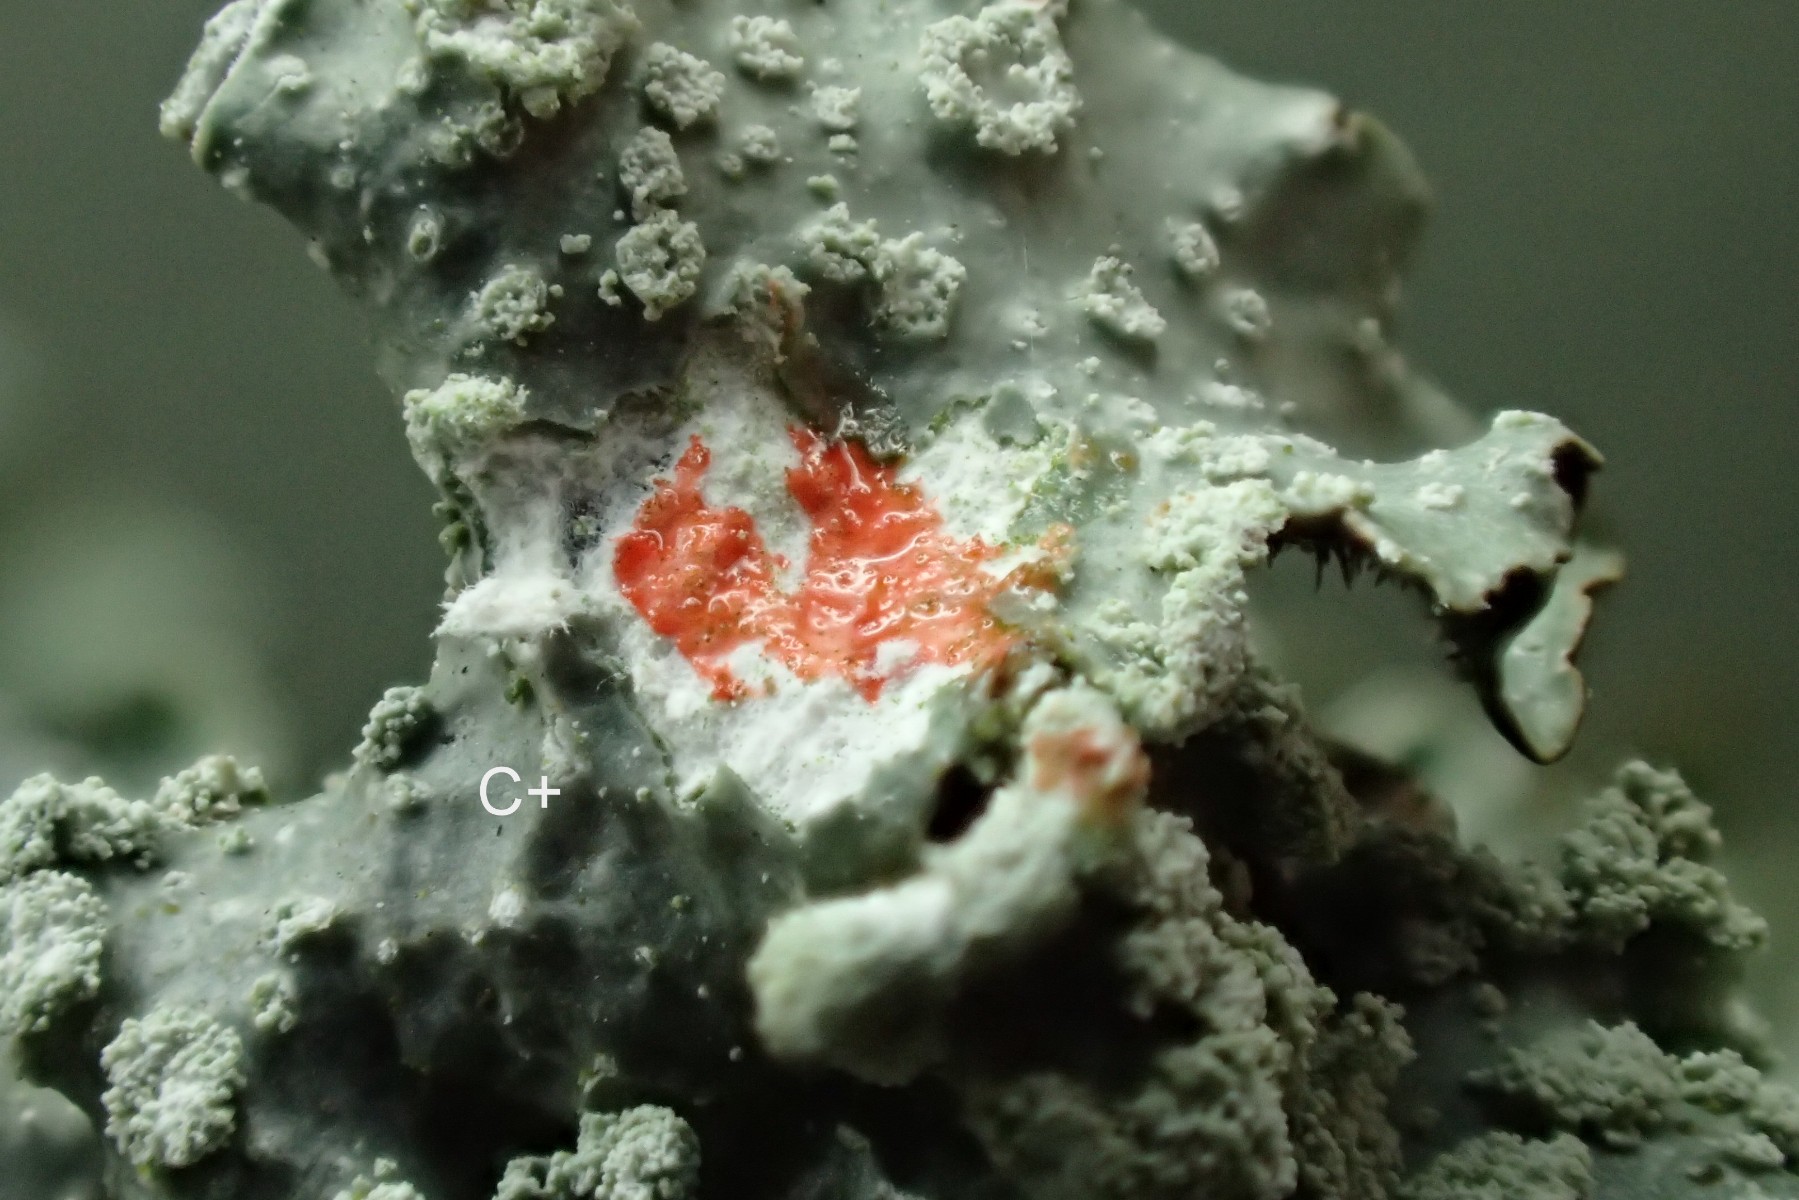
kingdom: Fungi
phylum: Ascomycota
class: Lecanoromycetes
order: Lecanorales
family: Parmeliaceae
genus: Punctelia
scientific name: Punctelia subrudecta
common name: punkt-skållav
